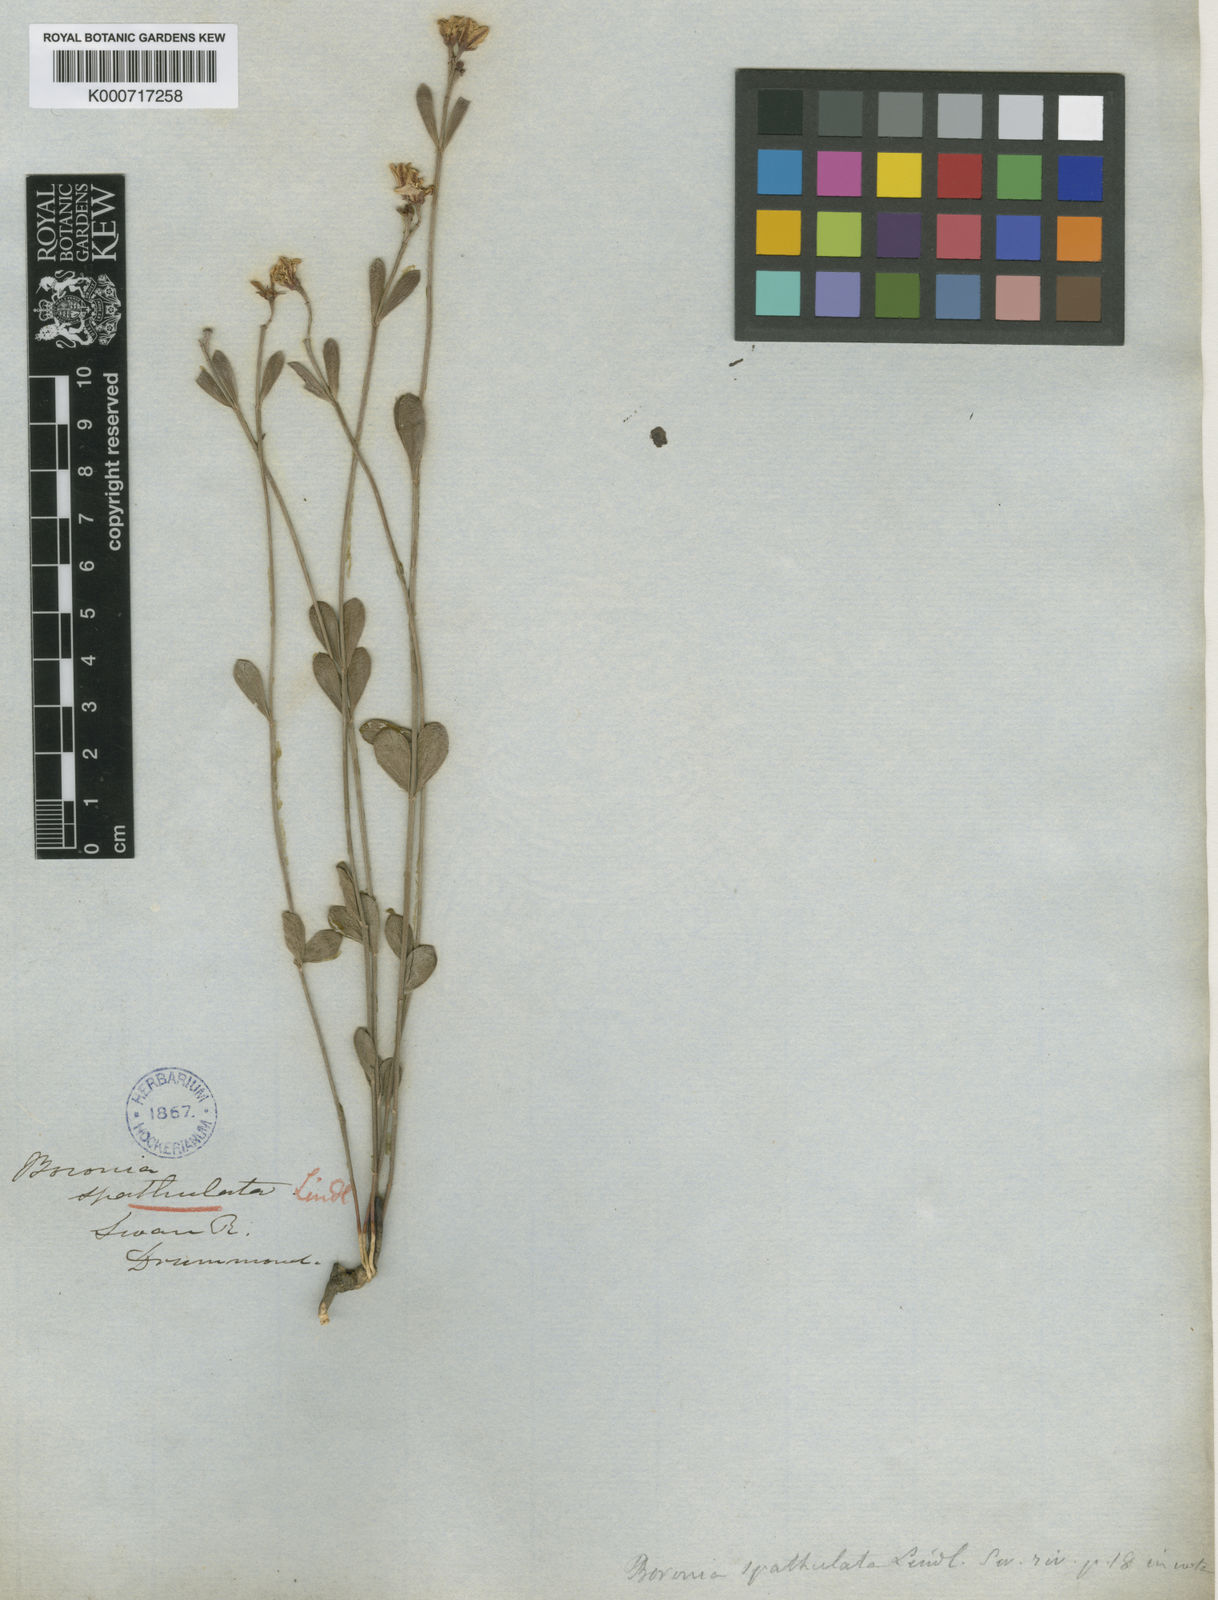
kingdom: Plantae
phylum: Tracheophyta
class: Magnoliopsida
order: Sapindales
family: Rutaceae
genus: Boronia
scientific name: Boronia spathulata
